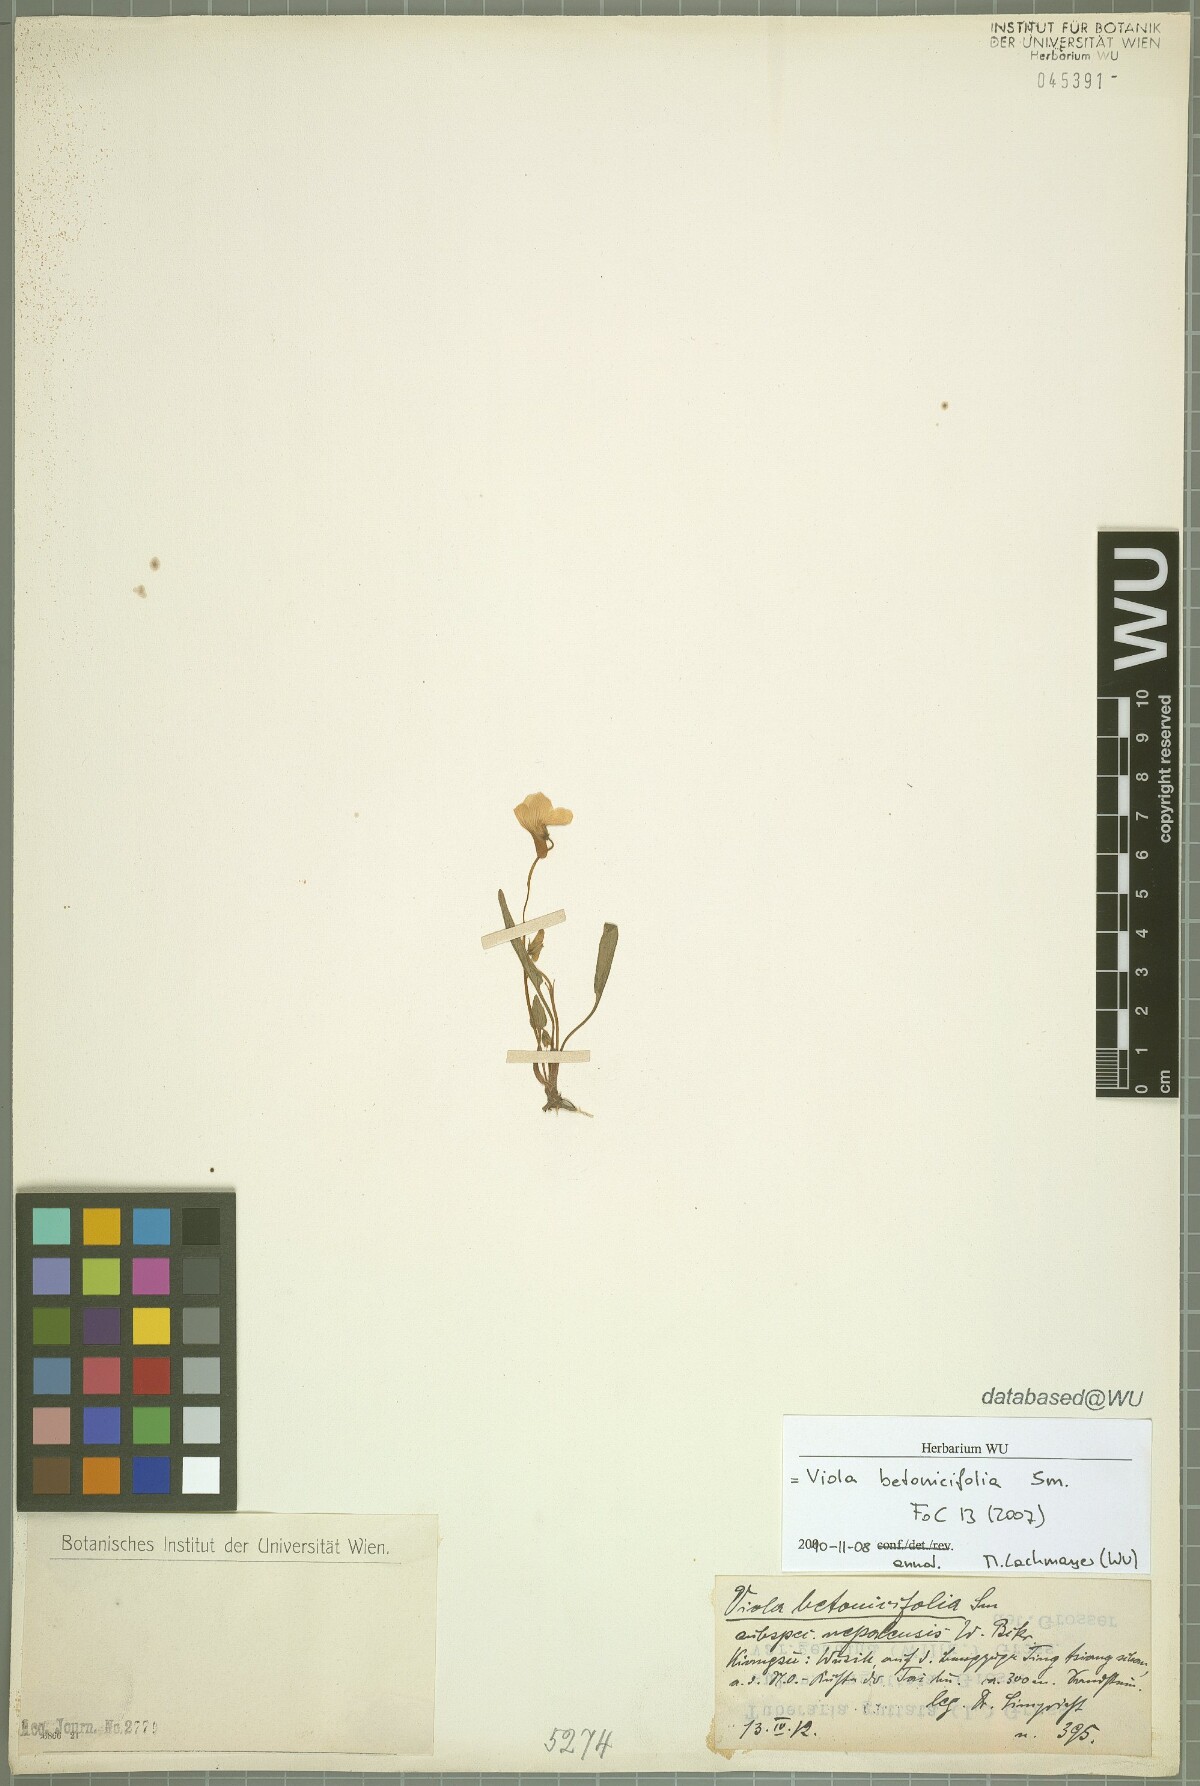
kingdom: Plantae
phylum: Tracheophyta
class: Magnoliopsida
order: Malpighiales
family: Violaceae
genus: Viola
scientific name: Viola betonicifolia
